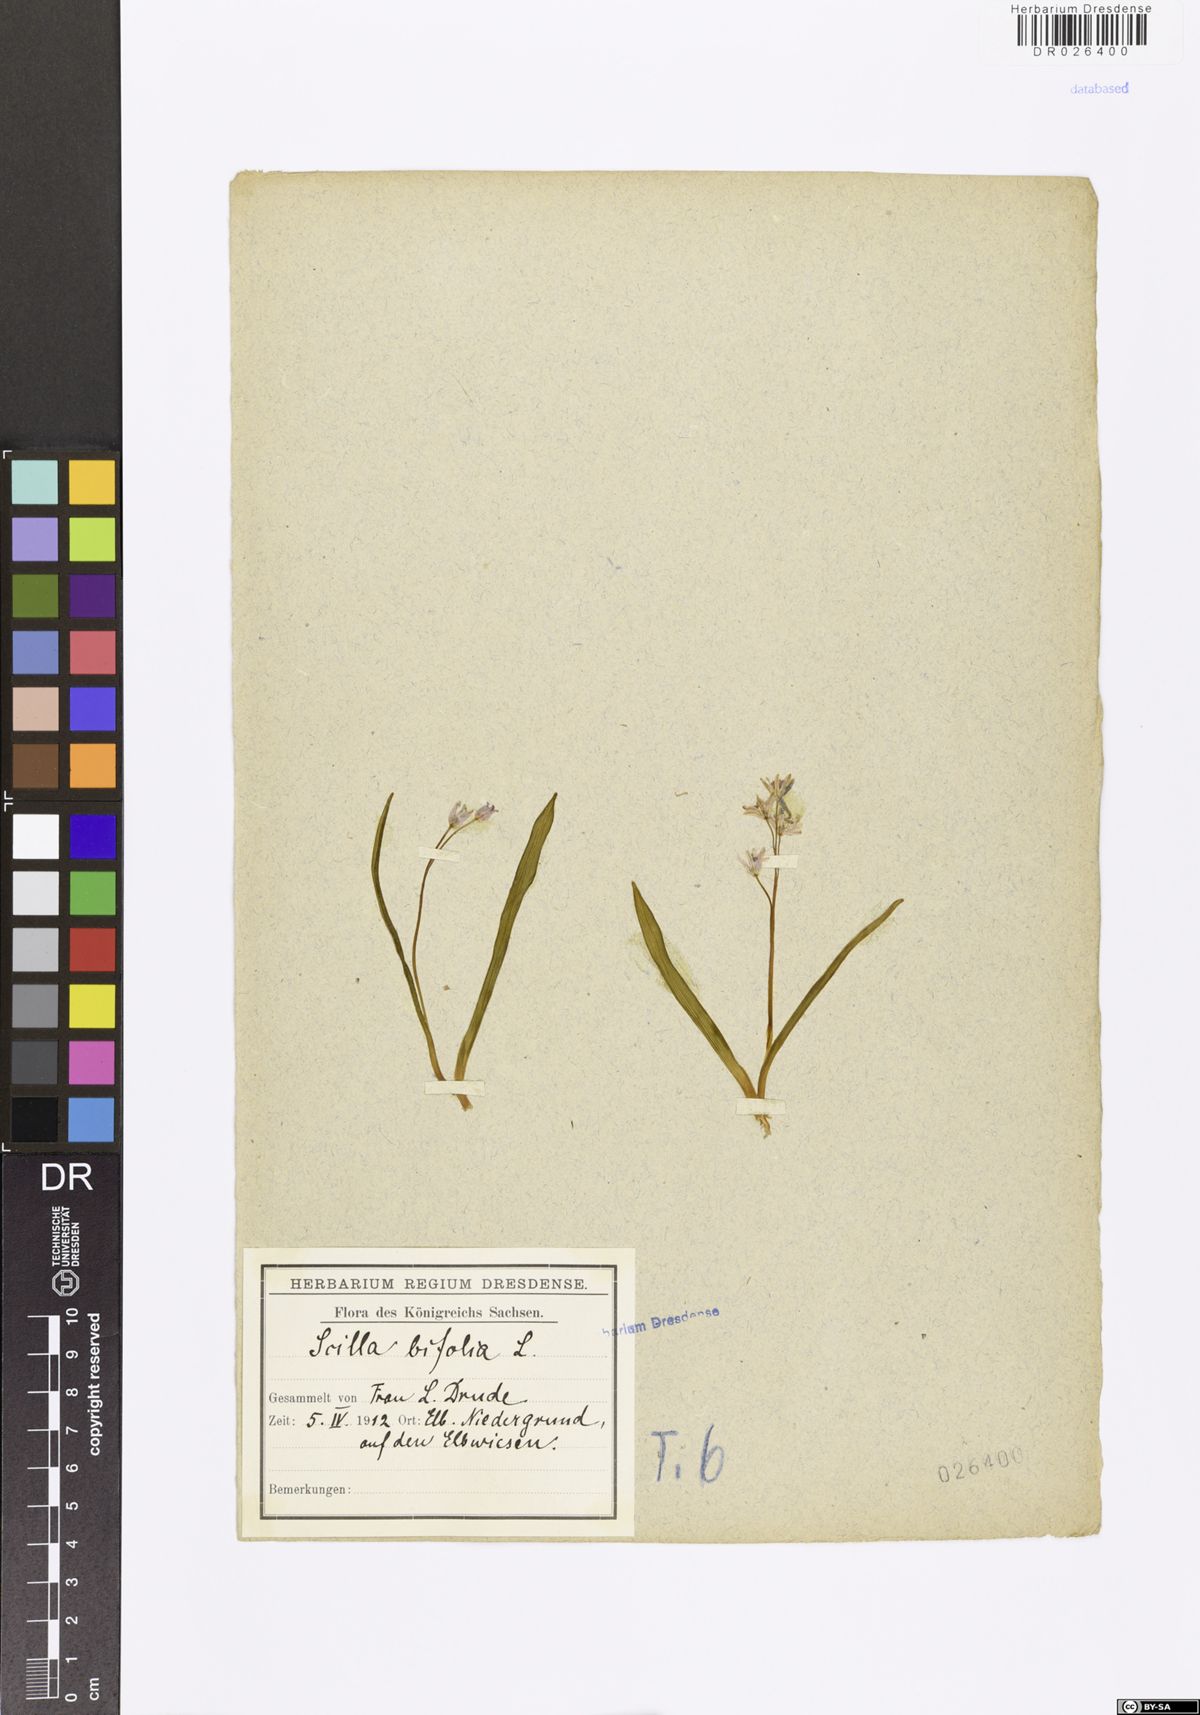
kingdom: Plantae
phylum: Tracheophyta
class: Liliopsida
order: Asparagales
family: Asparagaceae
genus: Scilla
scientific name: Scilla vindobonensis
